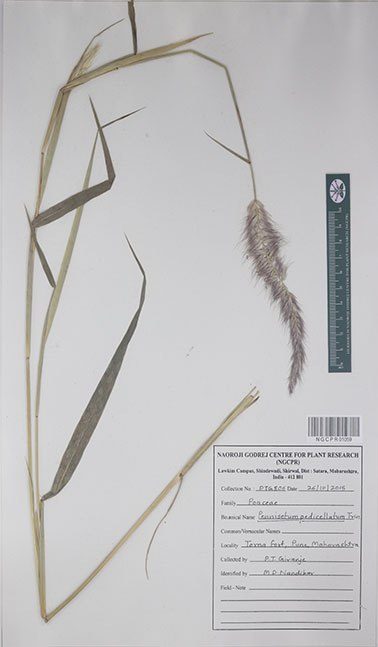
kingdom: Plantae
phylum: Tracheophyta
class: Liliopsida
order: Poales
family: Poaceae
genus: Cenchrus
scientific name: Cenchrus pedicellatus
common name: Hairy fountain grass
